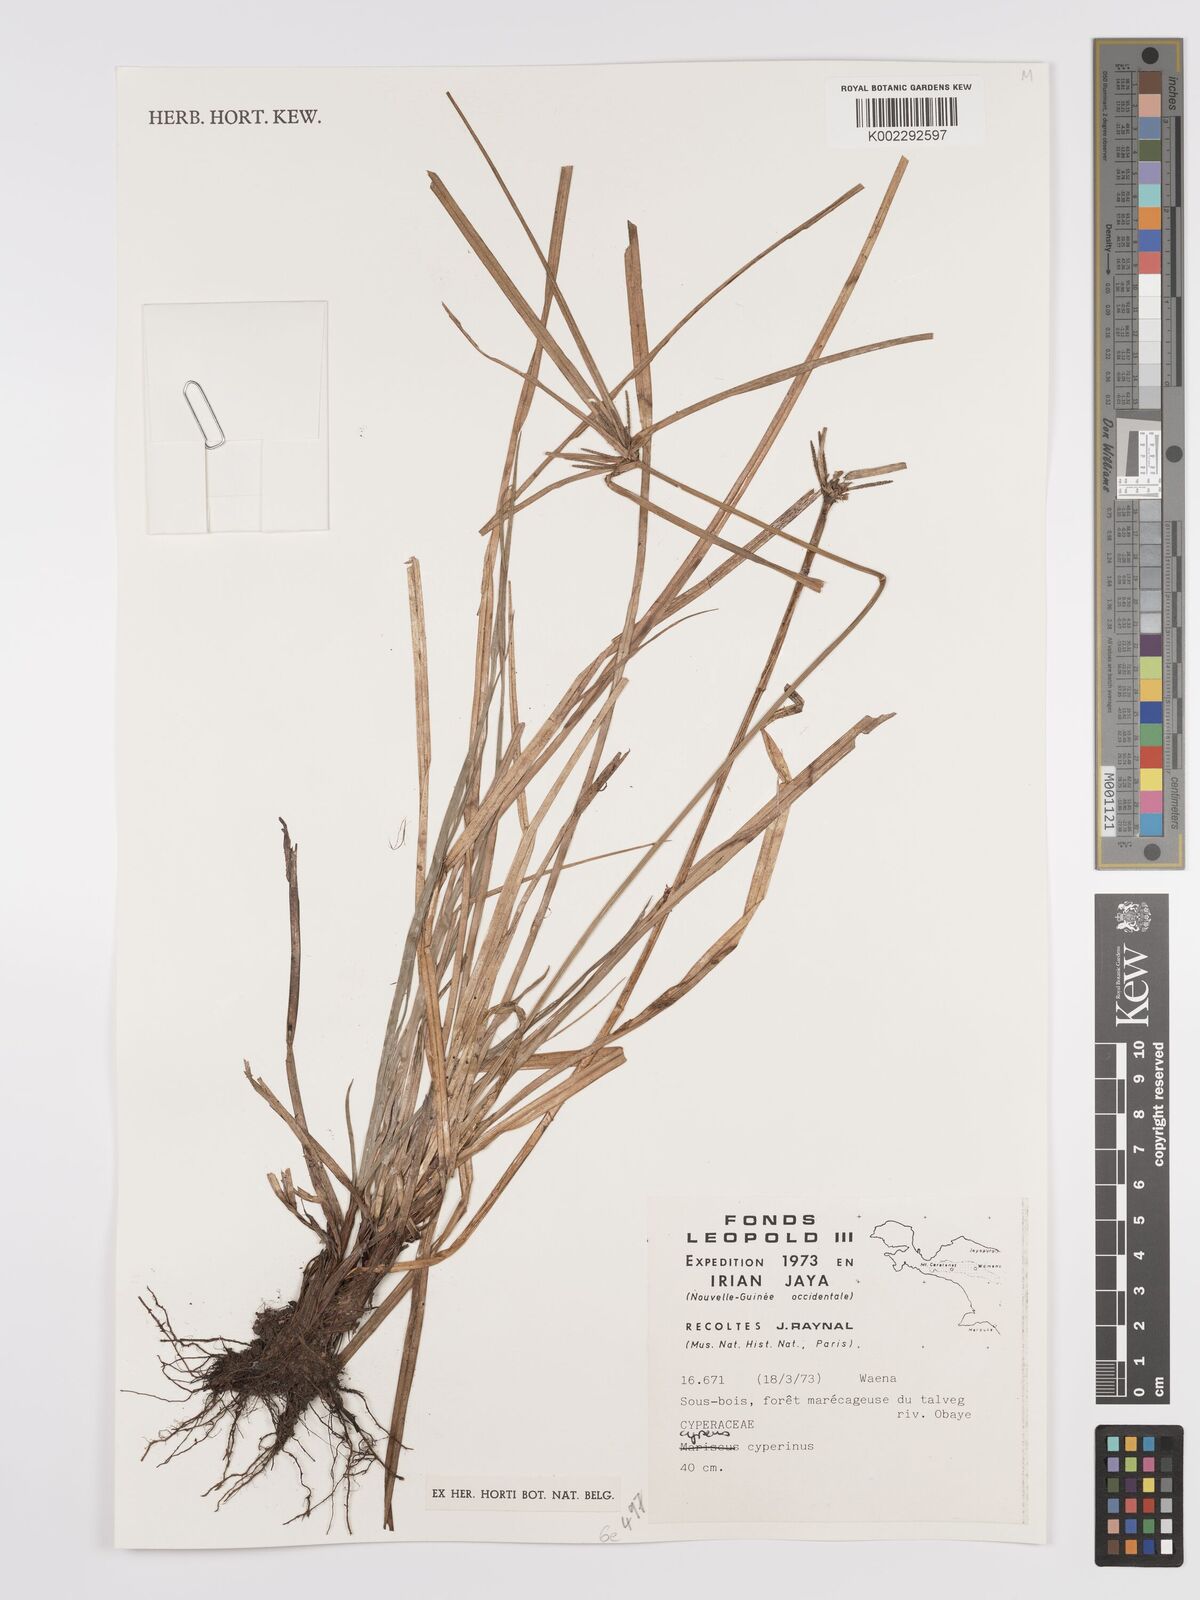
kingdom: Plantae
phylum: Tracheophyta
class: Liliopsida
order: Poales
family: Cyperaceae
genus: Cyperus
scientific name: Cyperus cyperinus
